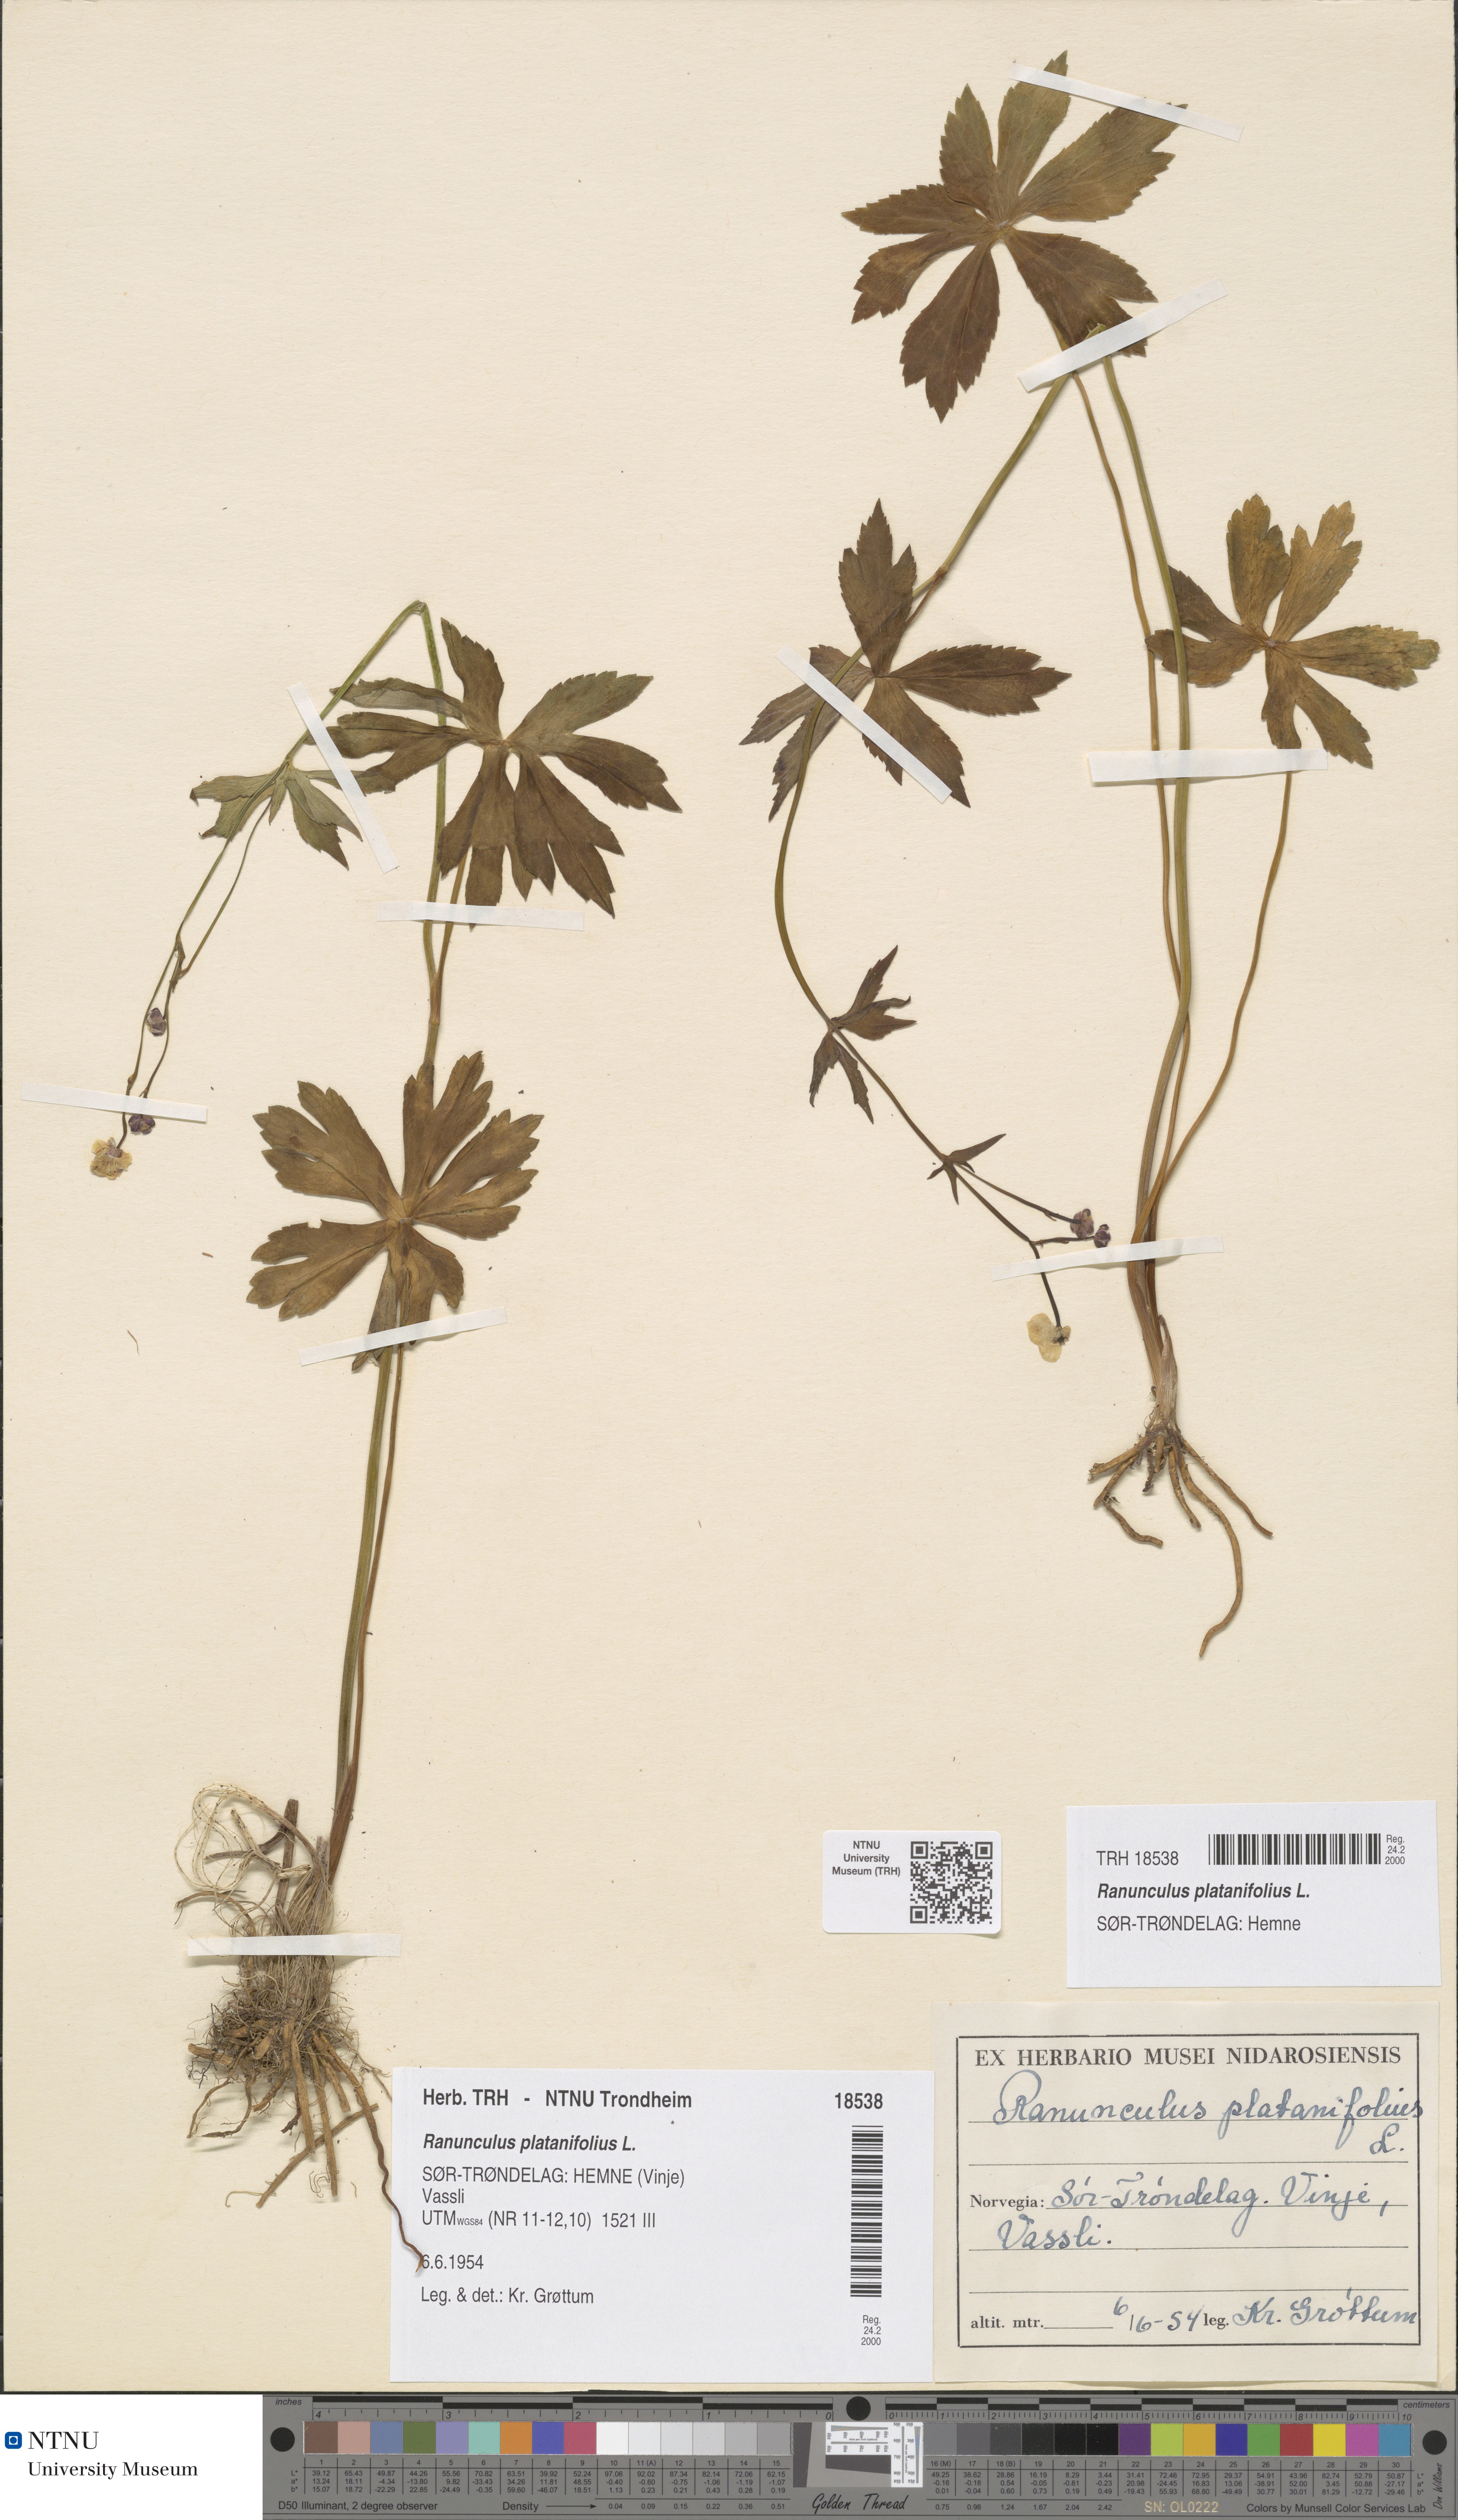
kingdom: Plantae
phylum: Tracheophyta
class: Magnoliopsida
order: Ranunculales
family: Ranunculaceae
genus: Ranunculus
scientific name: Ranunculus platanifolius
